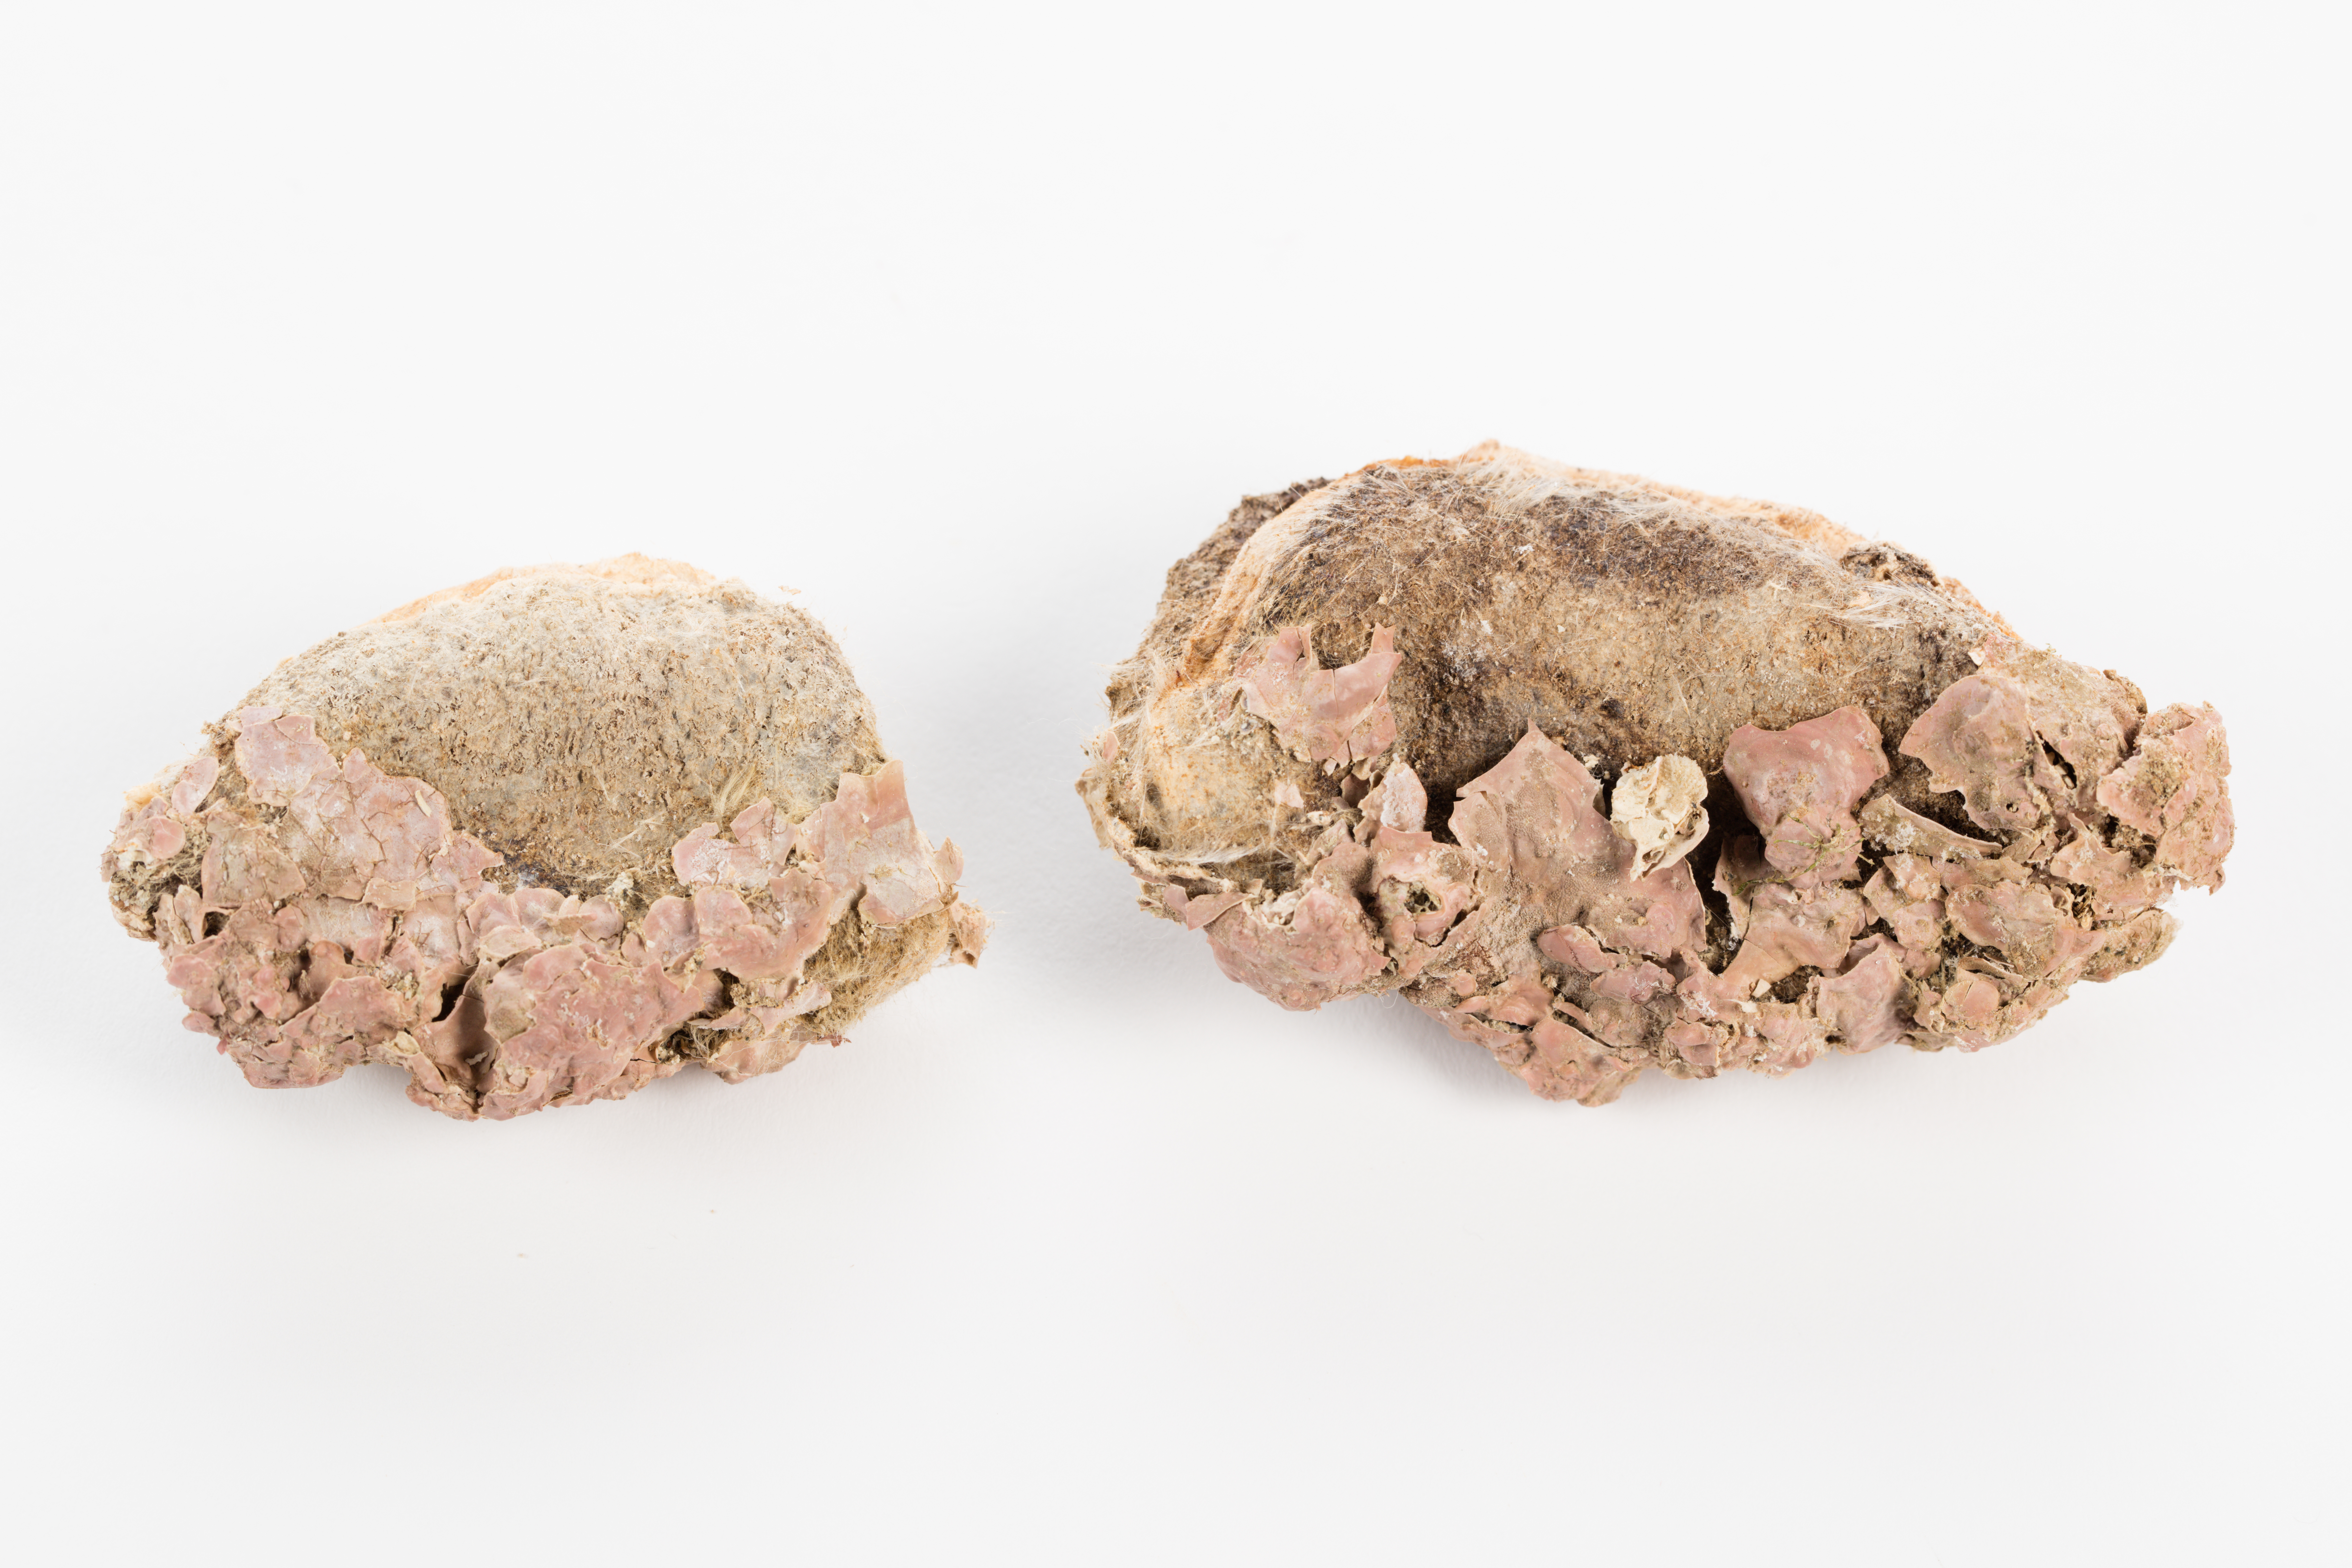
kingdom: Plantae
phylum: Rhodophyta
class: Florideophyceae
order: Corallinales
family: Mesophyllumaceae
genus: Mesophyllum
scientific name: Mesophyllum
